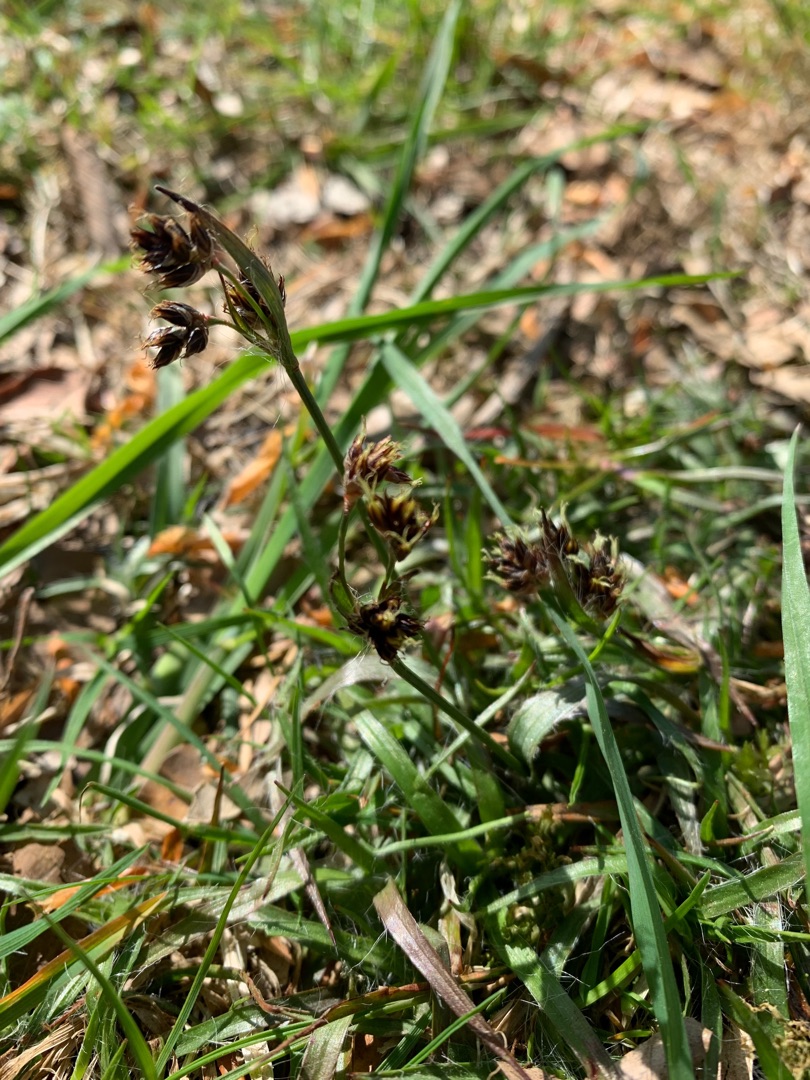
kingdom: Plantae
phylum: Tracheophyta
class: Liliopsida
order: Poales
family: Juncaceae
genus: Luzula
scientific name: Luzula campestris
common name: Mark-frytle
